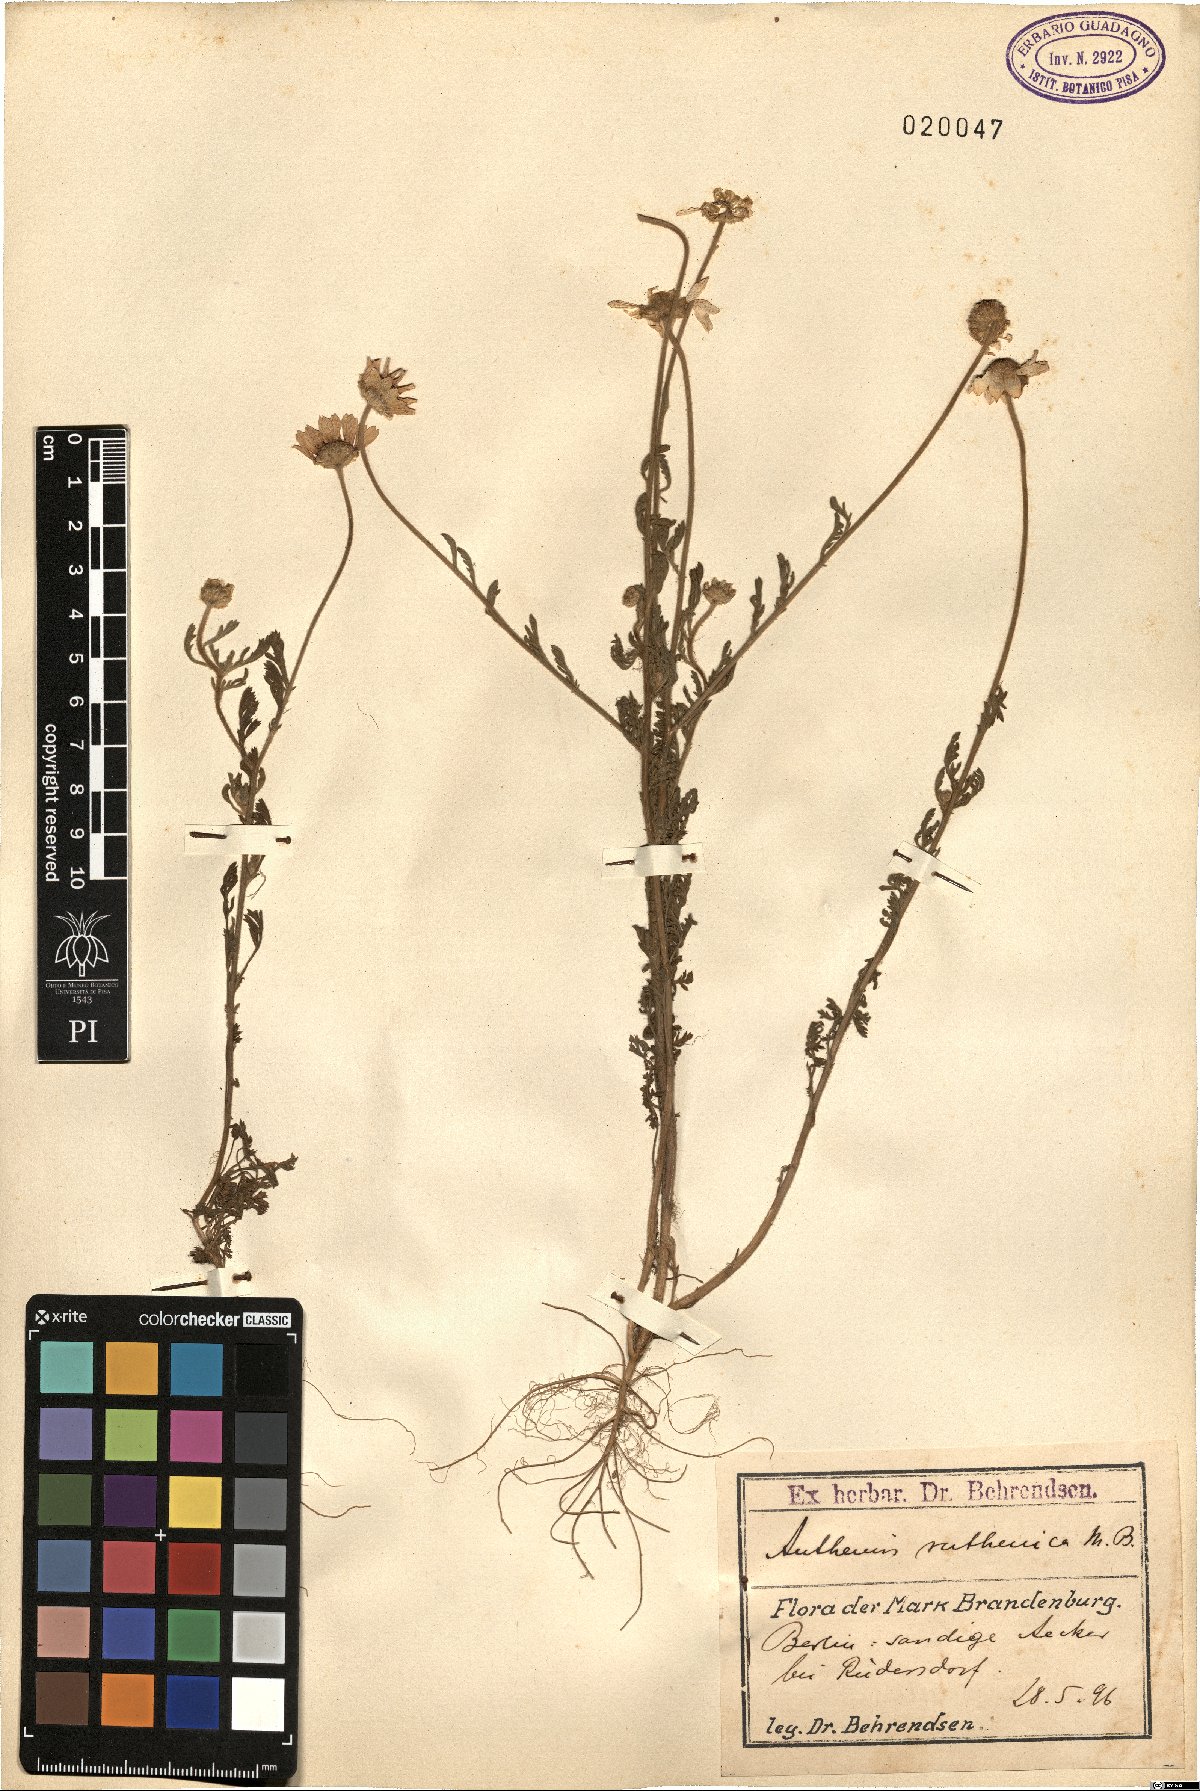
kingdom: Plantae
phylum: Tracheophyta
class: Magnoliopsida
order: Asterales
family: Asteraceae
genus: Anthemis
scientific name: Anthemis ruthenica
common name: Eastern chamomile
